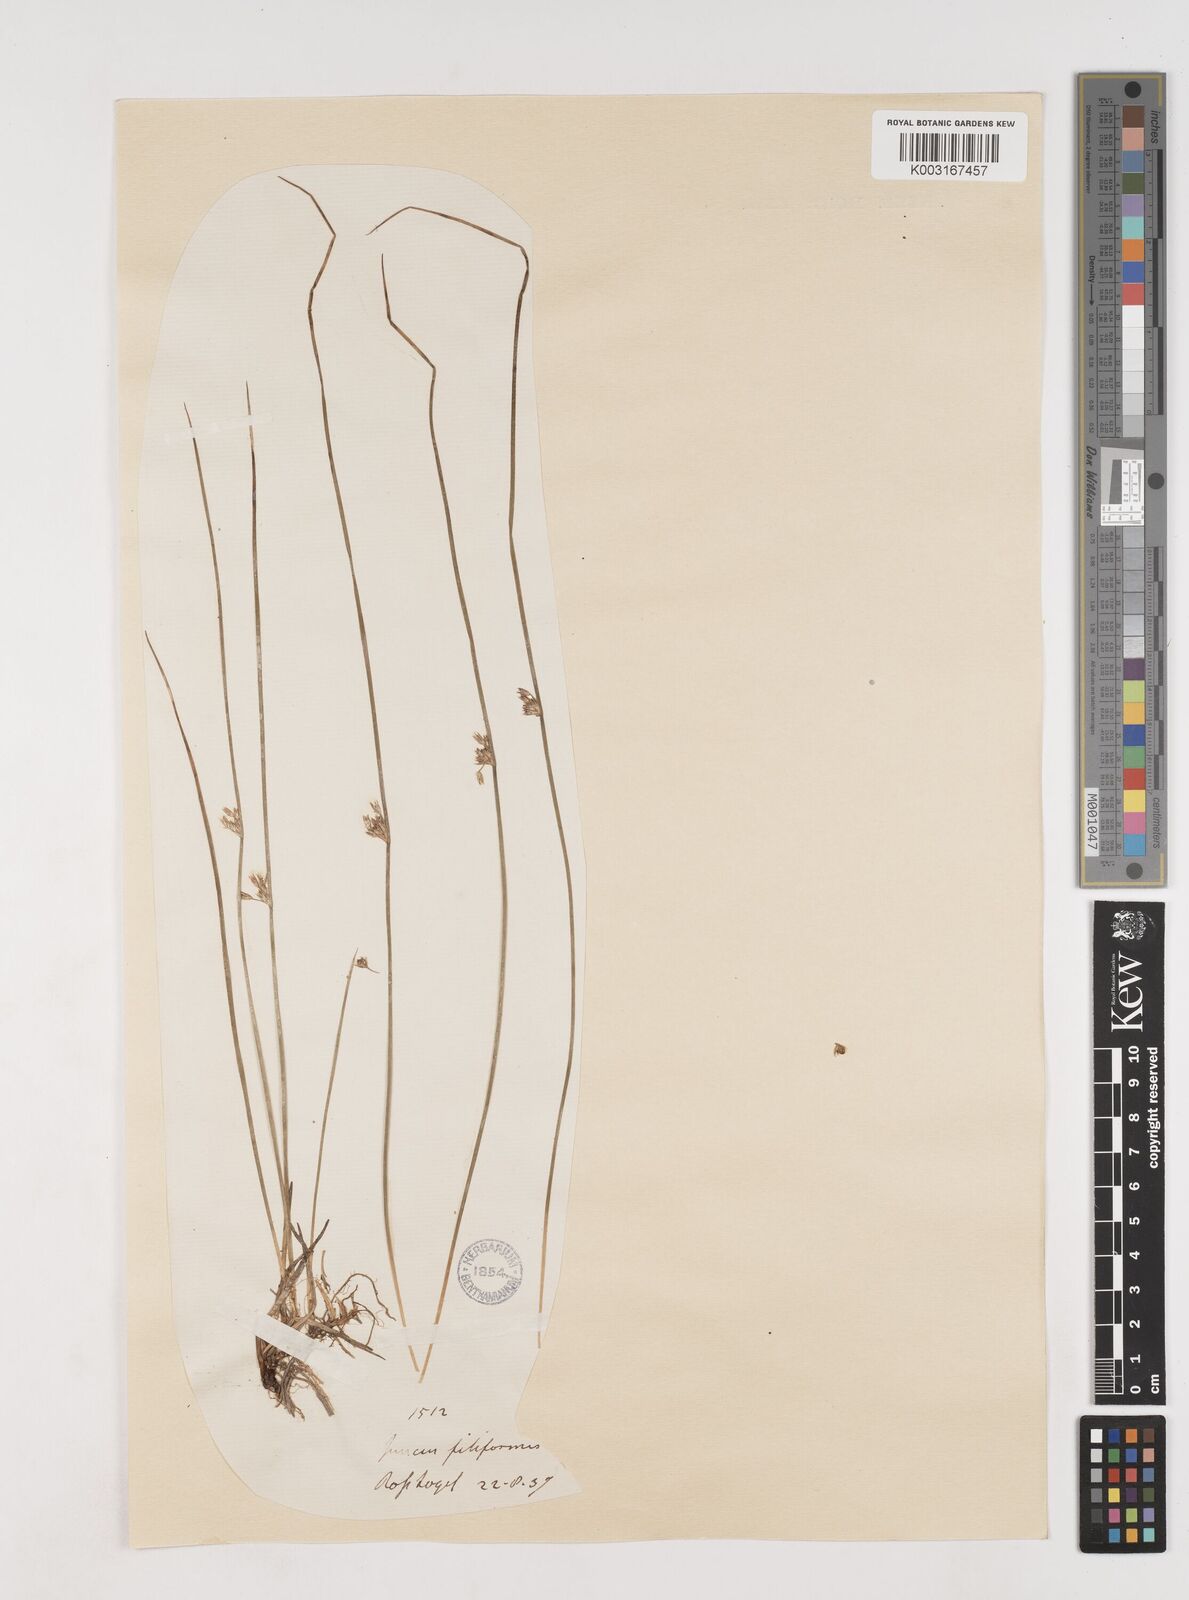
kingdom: Plantae
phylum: Tracheophyta
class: Liliopsida
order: Poales
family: Juncaceae
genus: Juncus
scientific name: Juncus filiformis
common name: Thread rush
